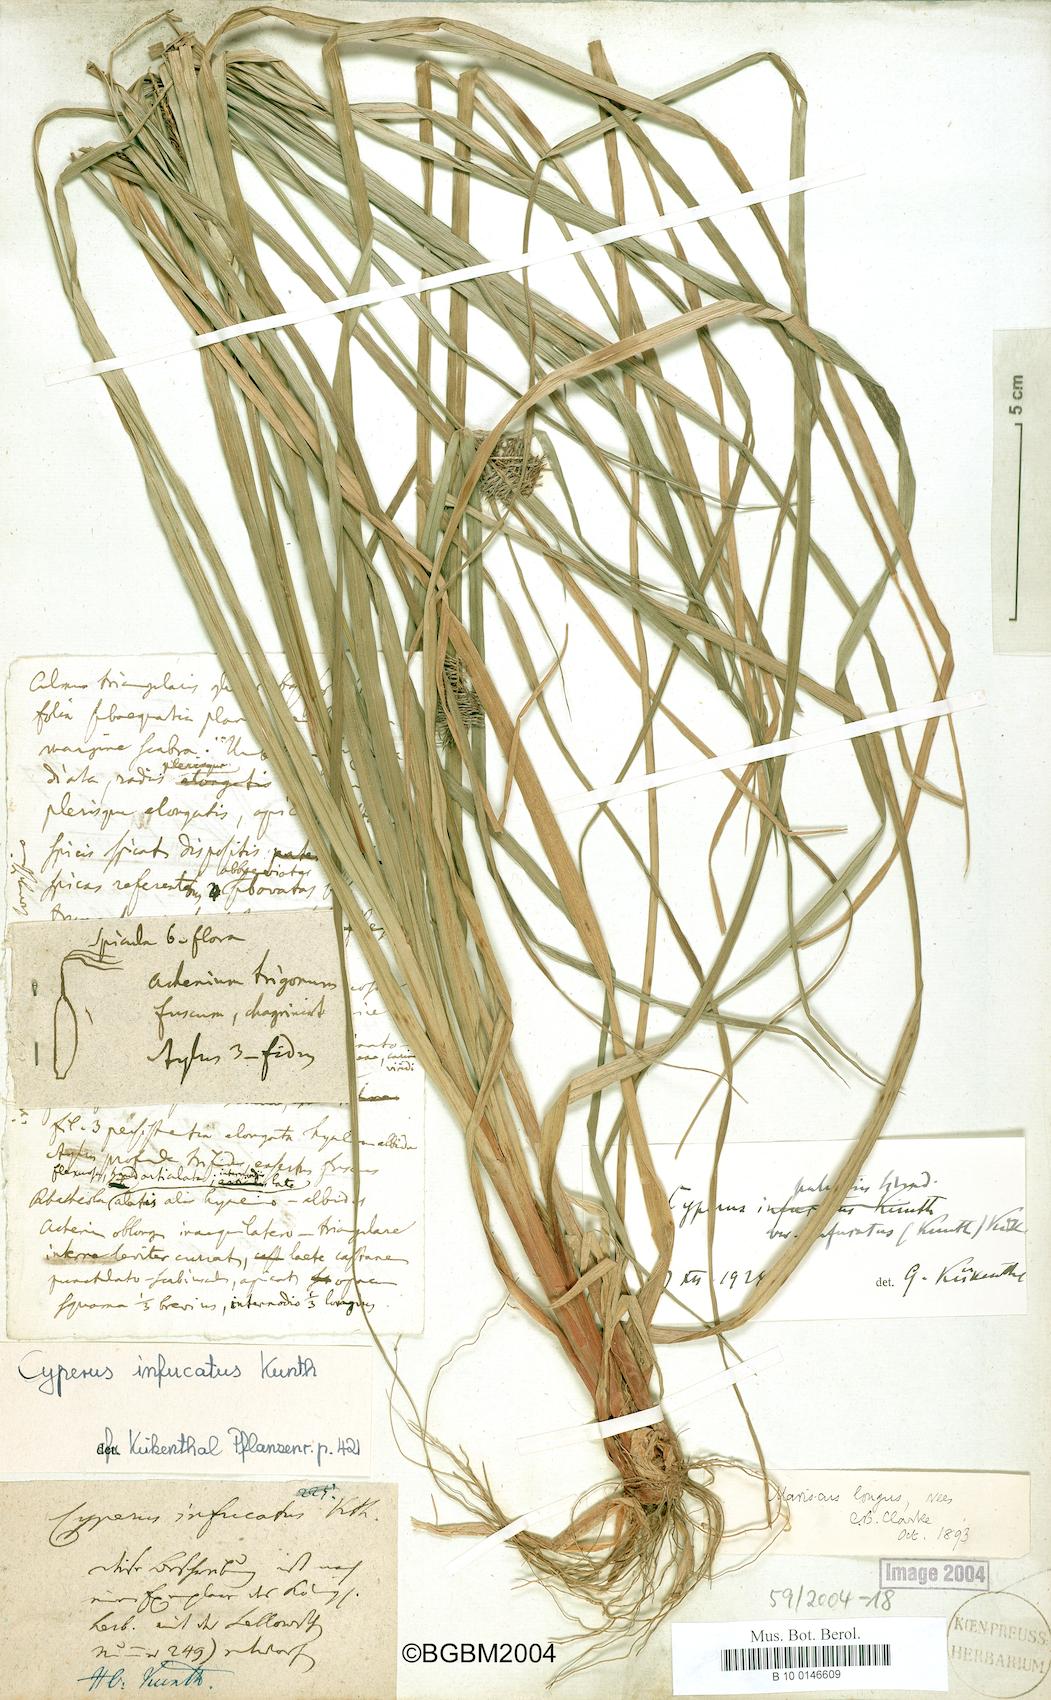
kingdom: Plantae
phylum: Tracheophyta
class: Liliopsida
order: Poales
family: Cyperaceae
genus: Cyperus
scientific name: Cyperus infucatus
